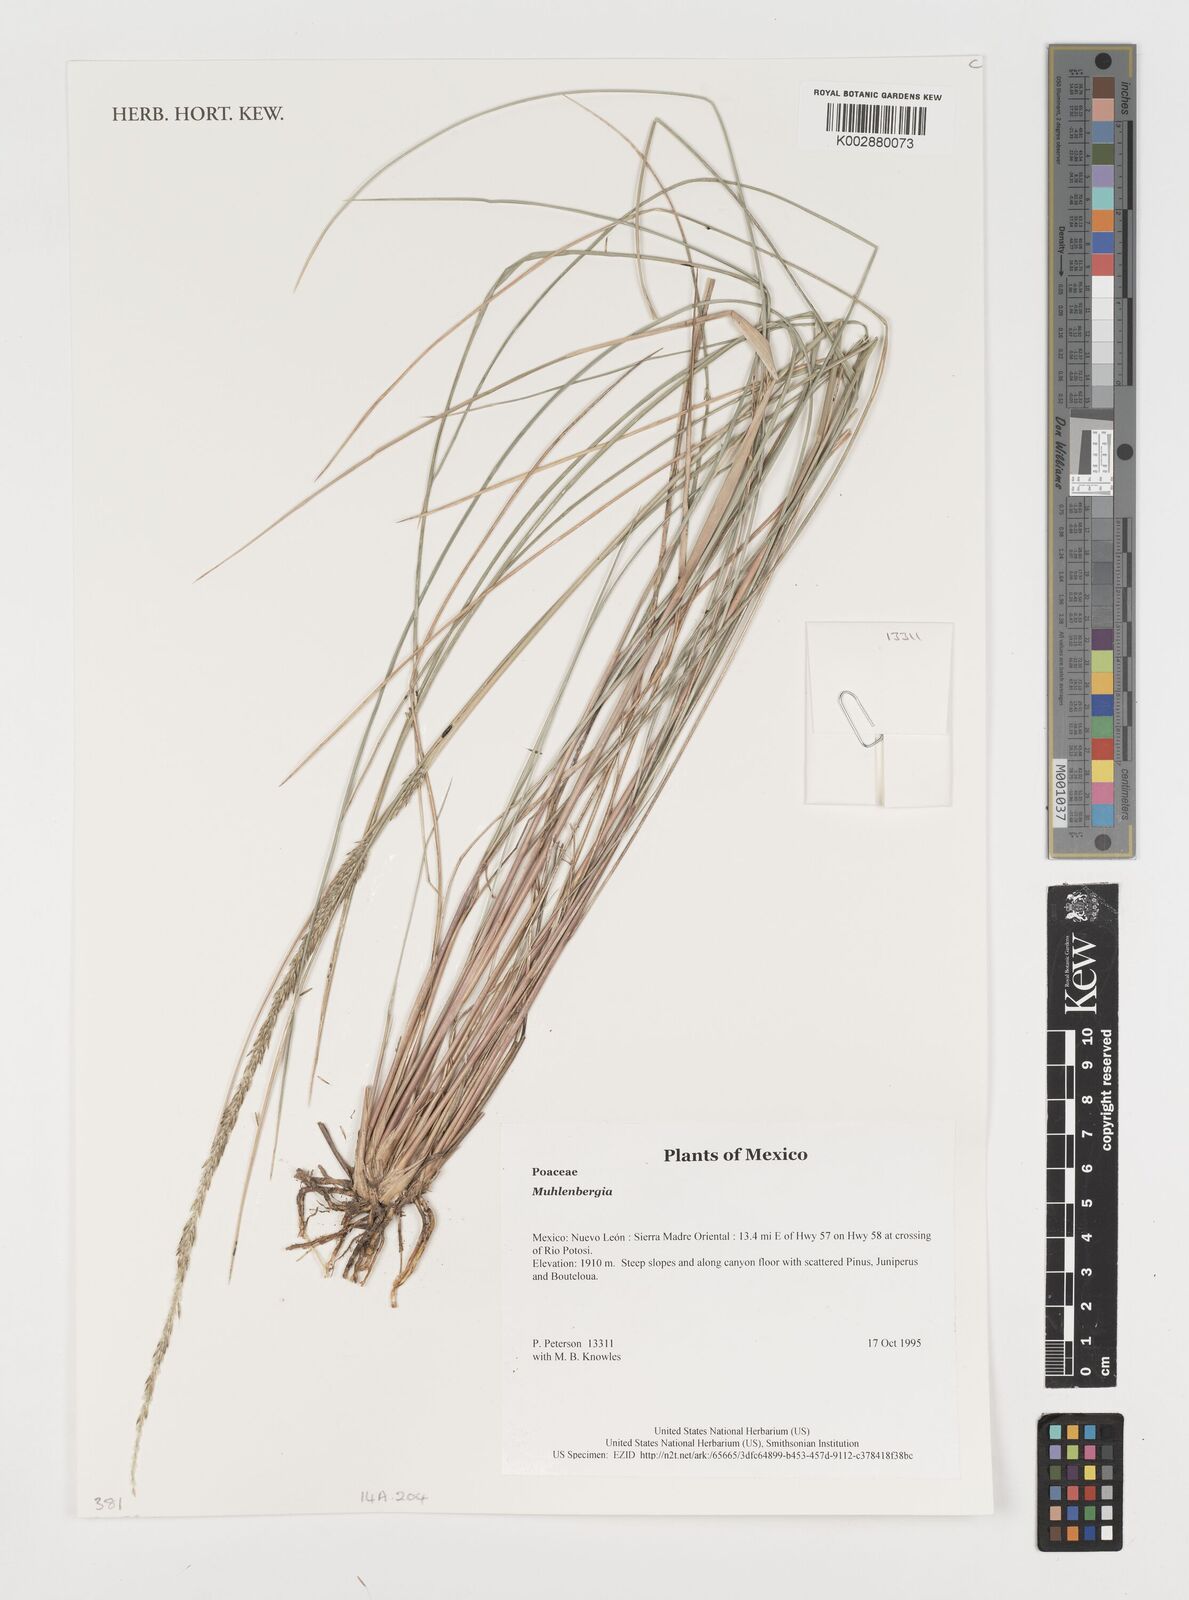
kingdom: Plantae
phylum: Tracheophyta
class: Liliopsida
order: Poales
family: Poaceae
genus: Muhlenbergia
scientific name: Muhlenbergia
